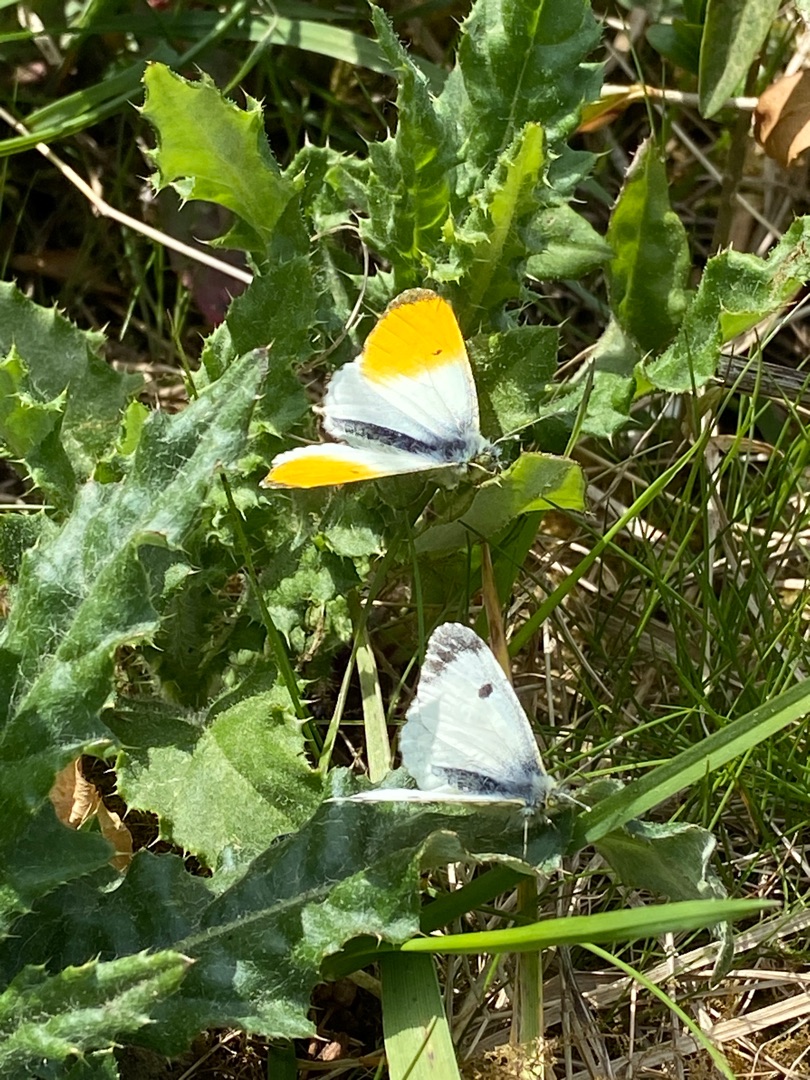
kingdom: Animalia
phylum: Arthropoda
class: Insecta
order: Lepidoptera
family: Pieridae
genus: Anthocharis
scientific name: Anthocharis cardamines
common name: Aurora
